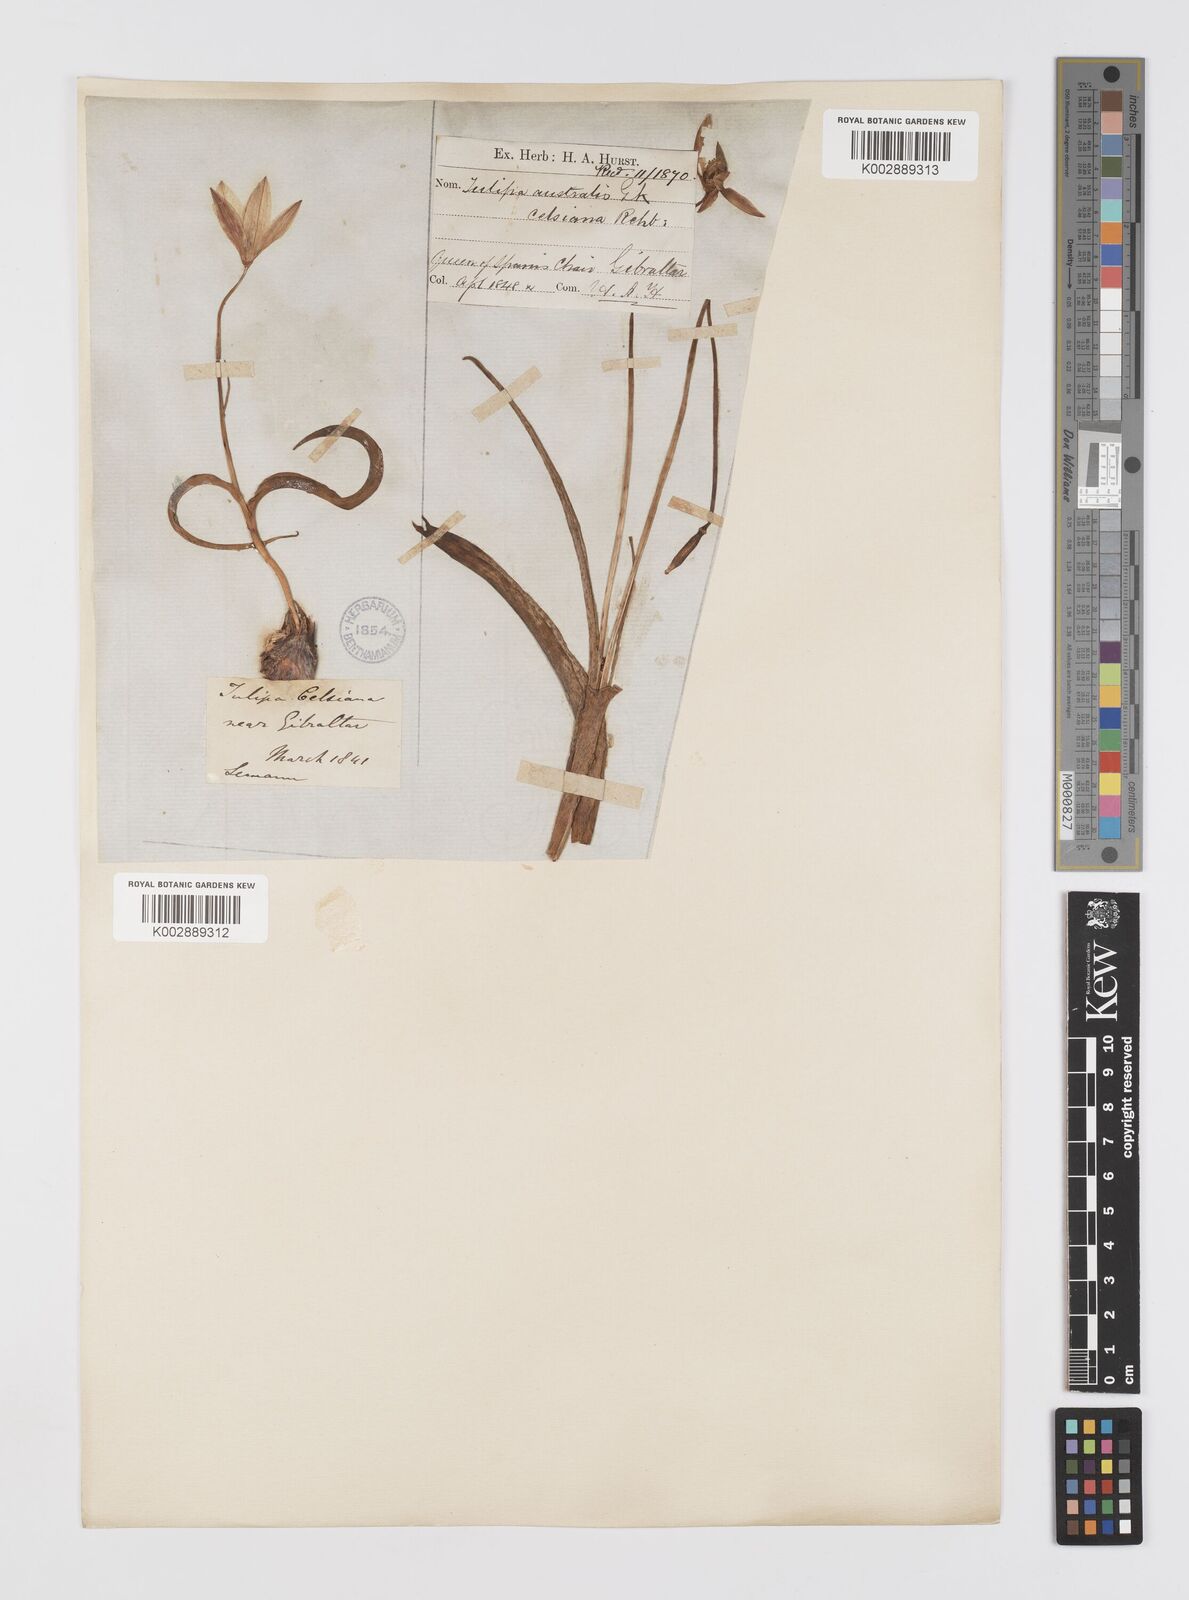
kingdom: Plantae
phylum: Tracheophyta
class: Liliopsida
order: Liliales
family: Liliaceae
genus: Tulipa
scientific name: Tulipa sylvestris
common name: Wild tulip
